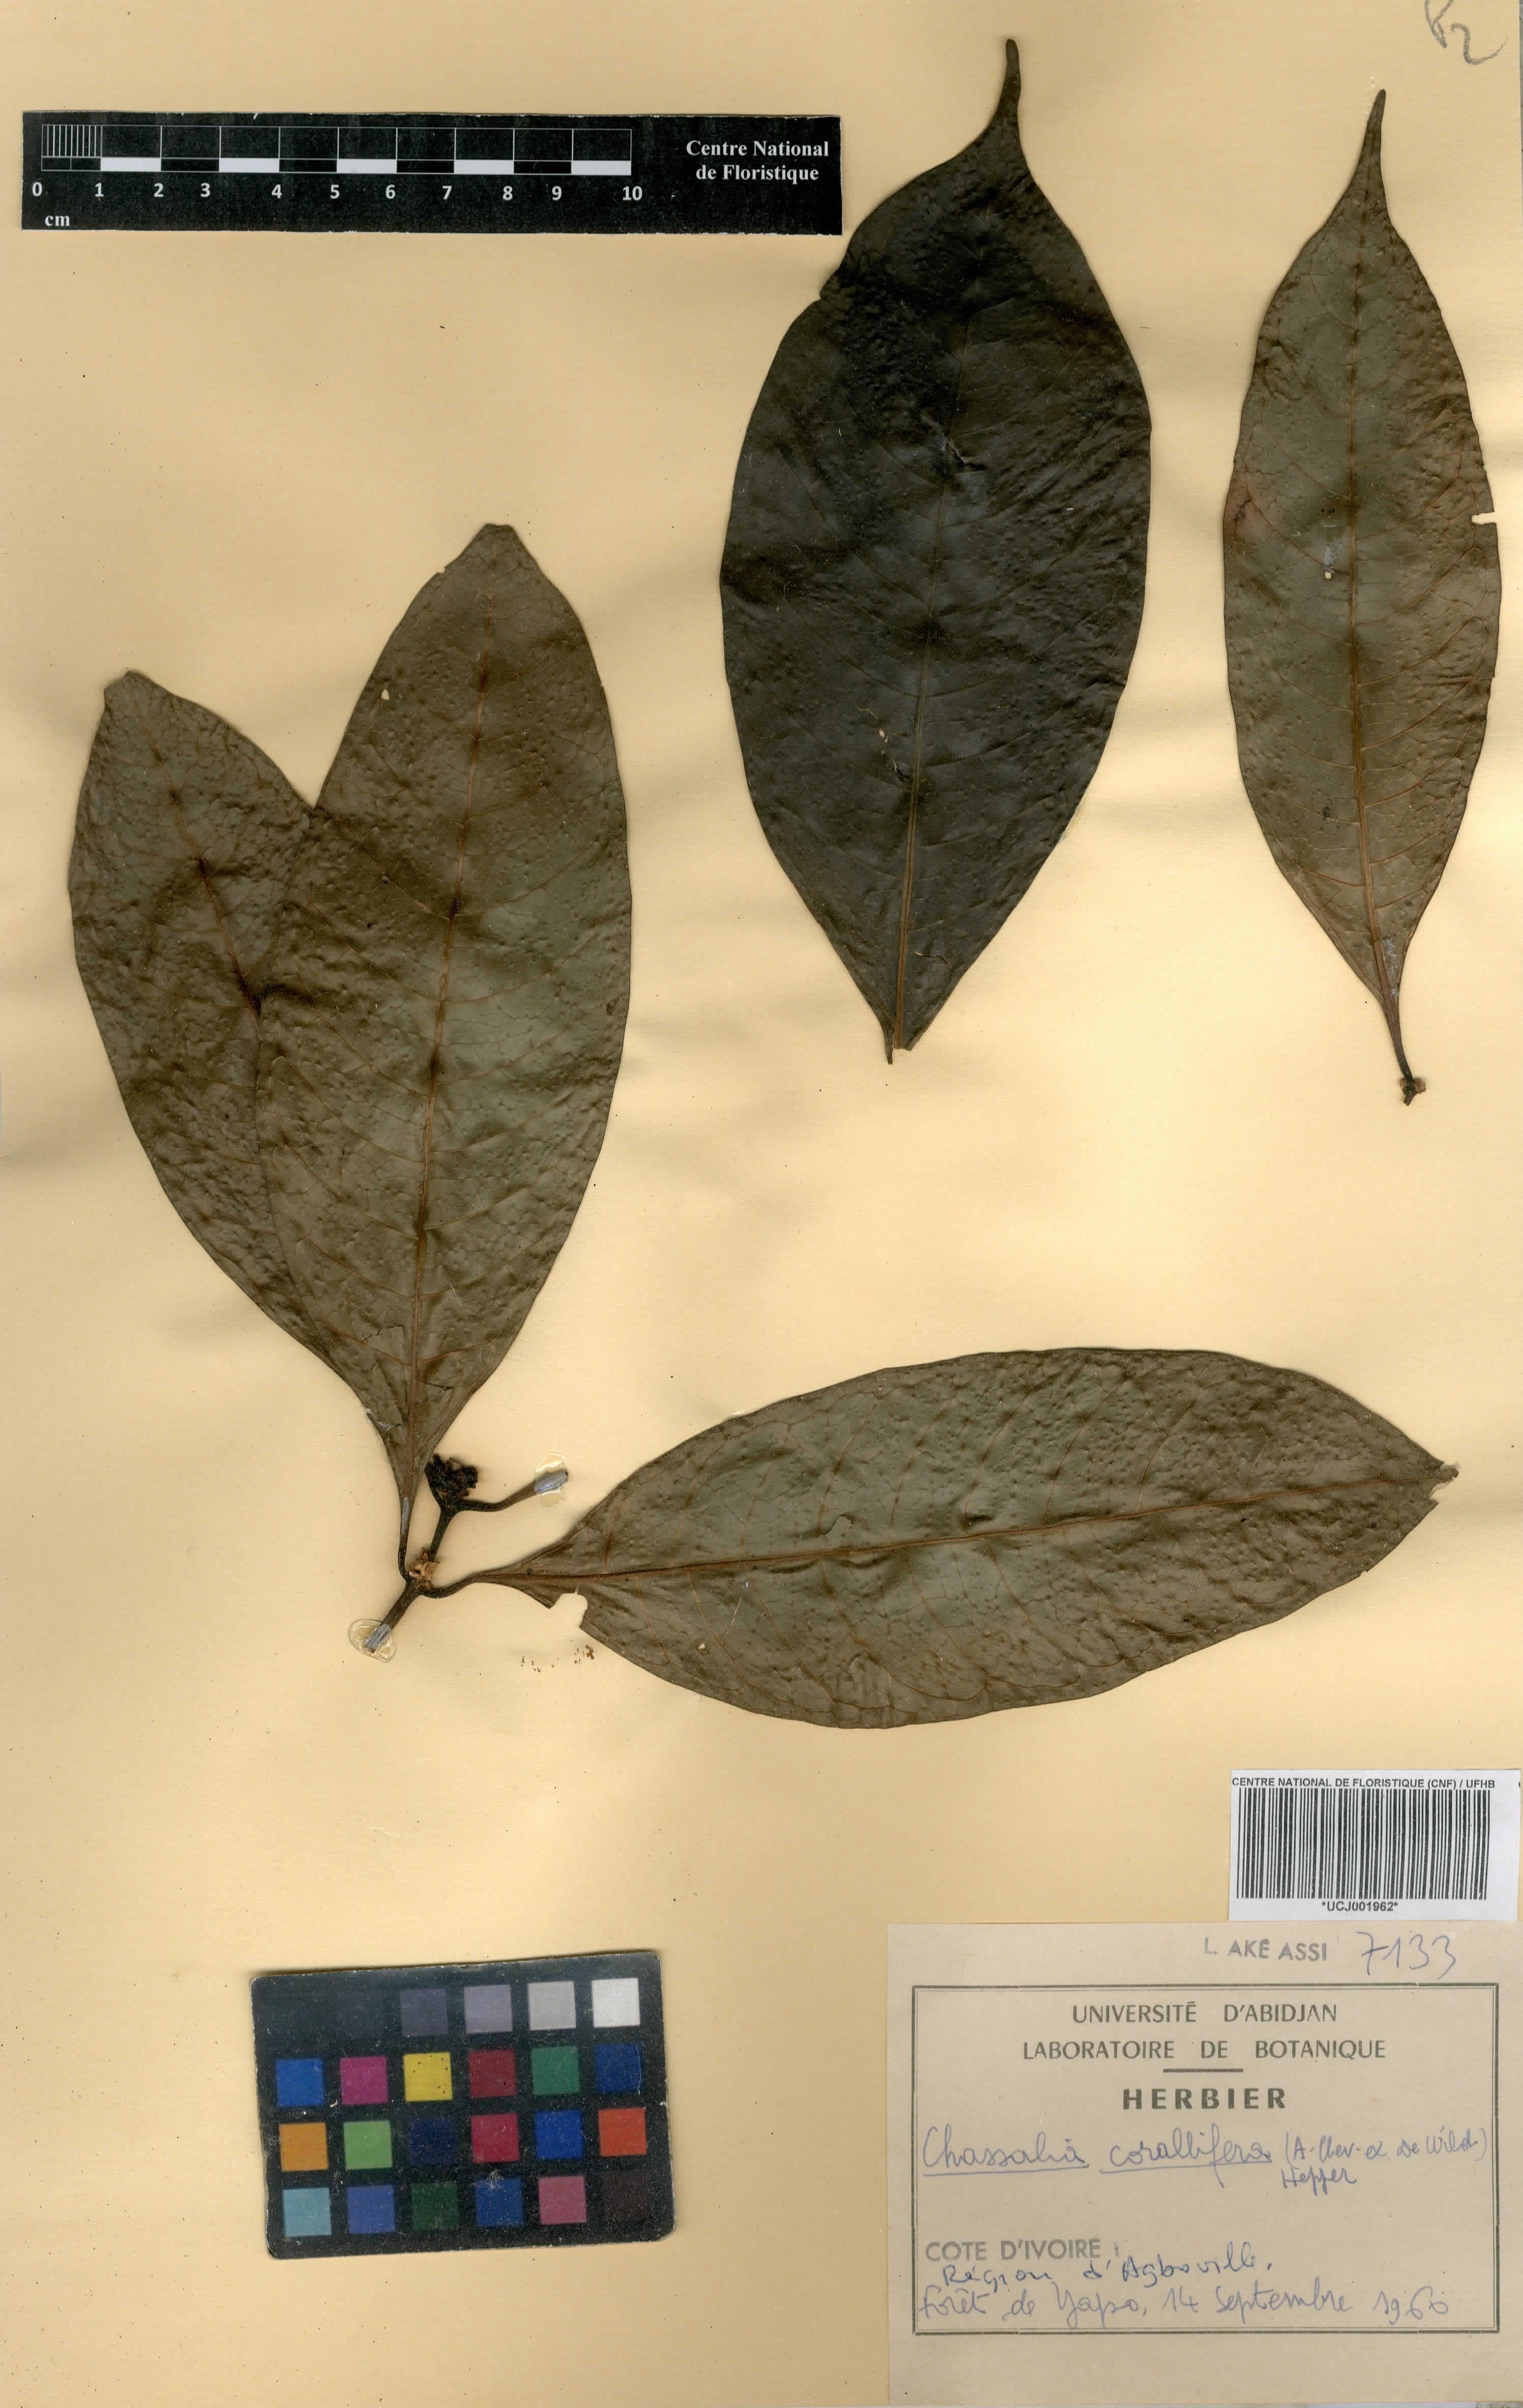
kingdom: Plantae
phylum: Tracheophyta
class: Magnoliopsida
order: Gentianales
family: Rubiaceae
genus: Chassalia
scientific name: Chassalia corallifera
